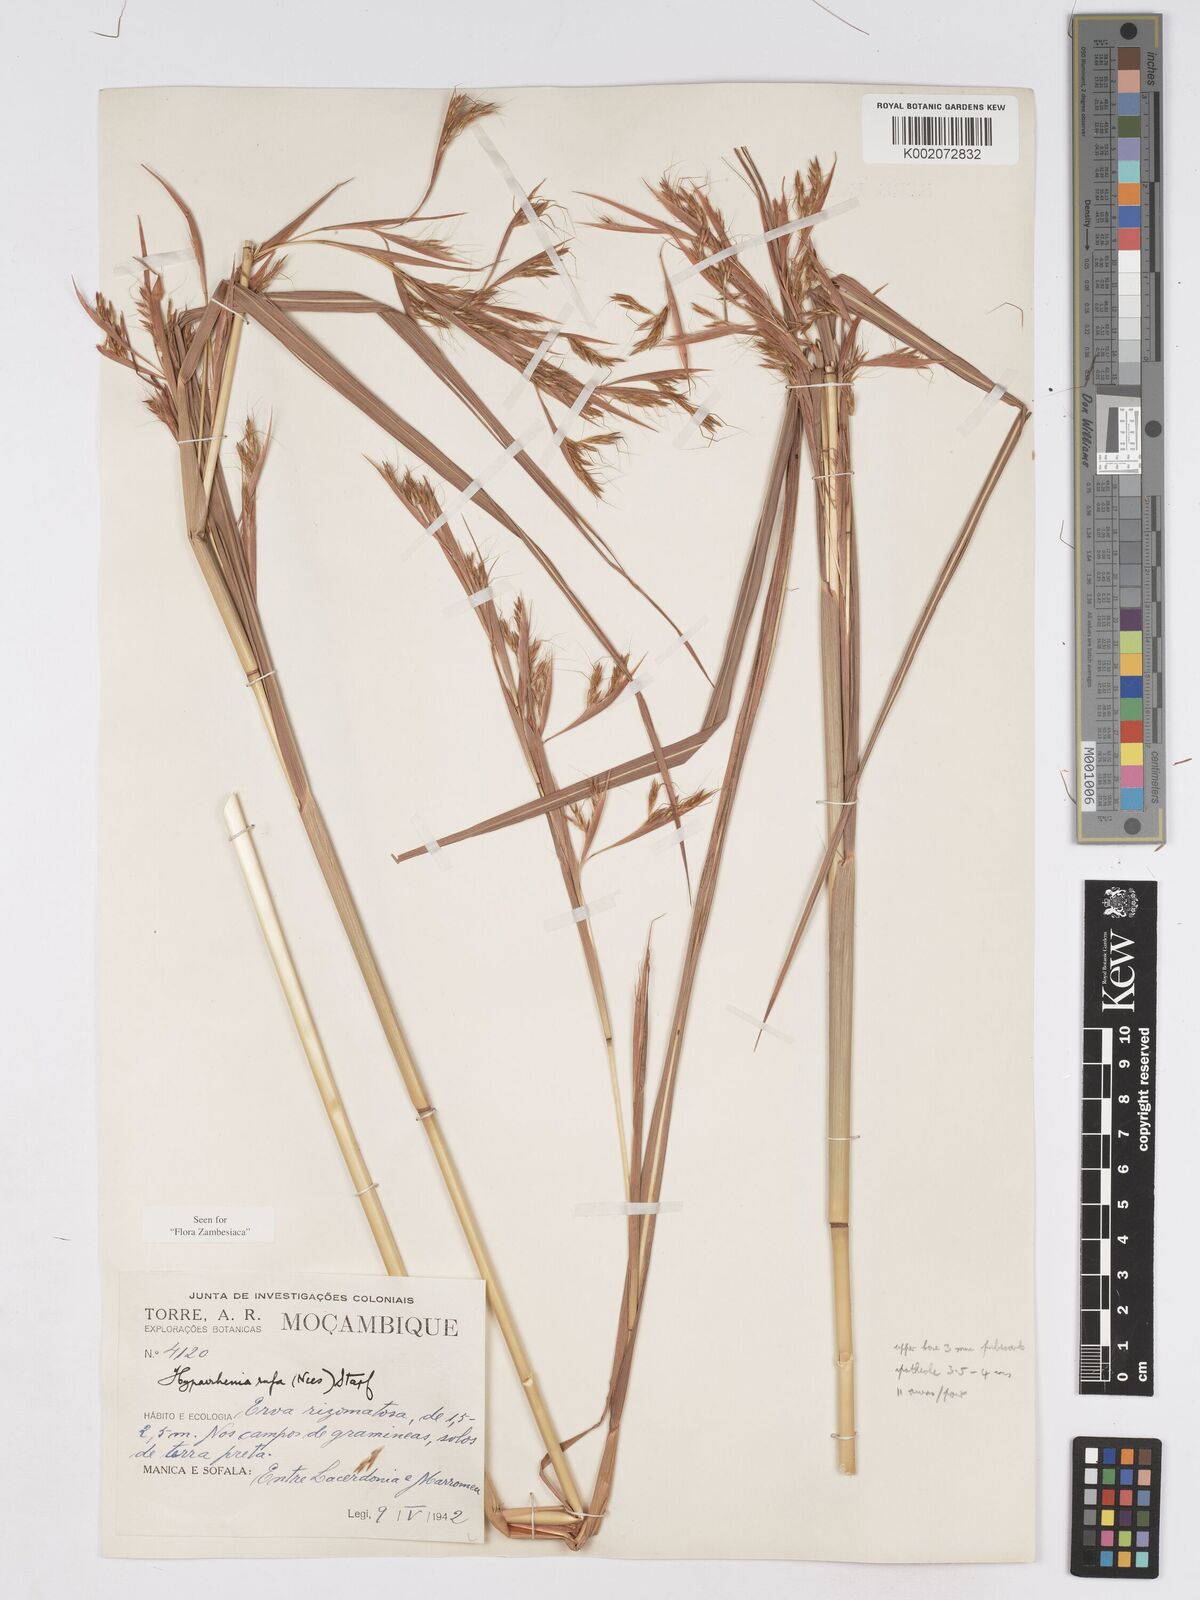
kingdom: Plantae
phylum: Tracheophyta
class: Liliopsida
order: Poales
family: Poaceae
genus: Hyparrhenia
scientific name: Hyparrhenia rufa
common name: Jaraguagrass
